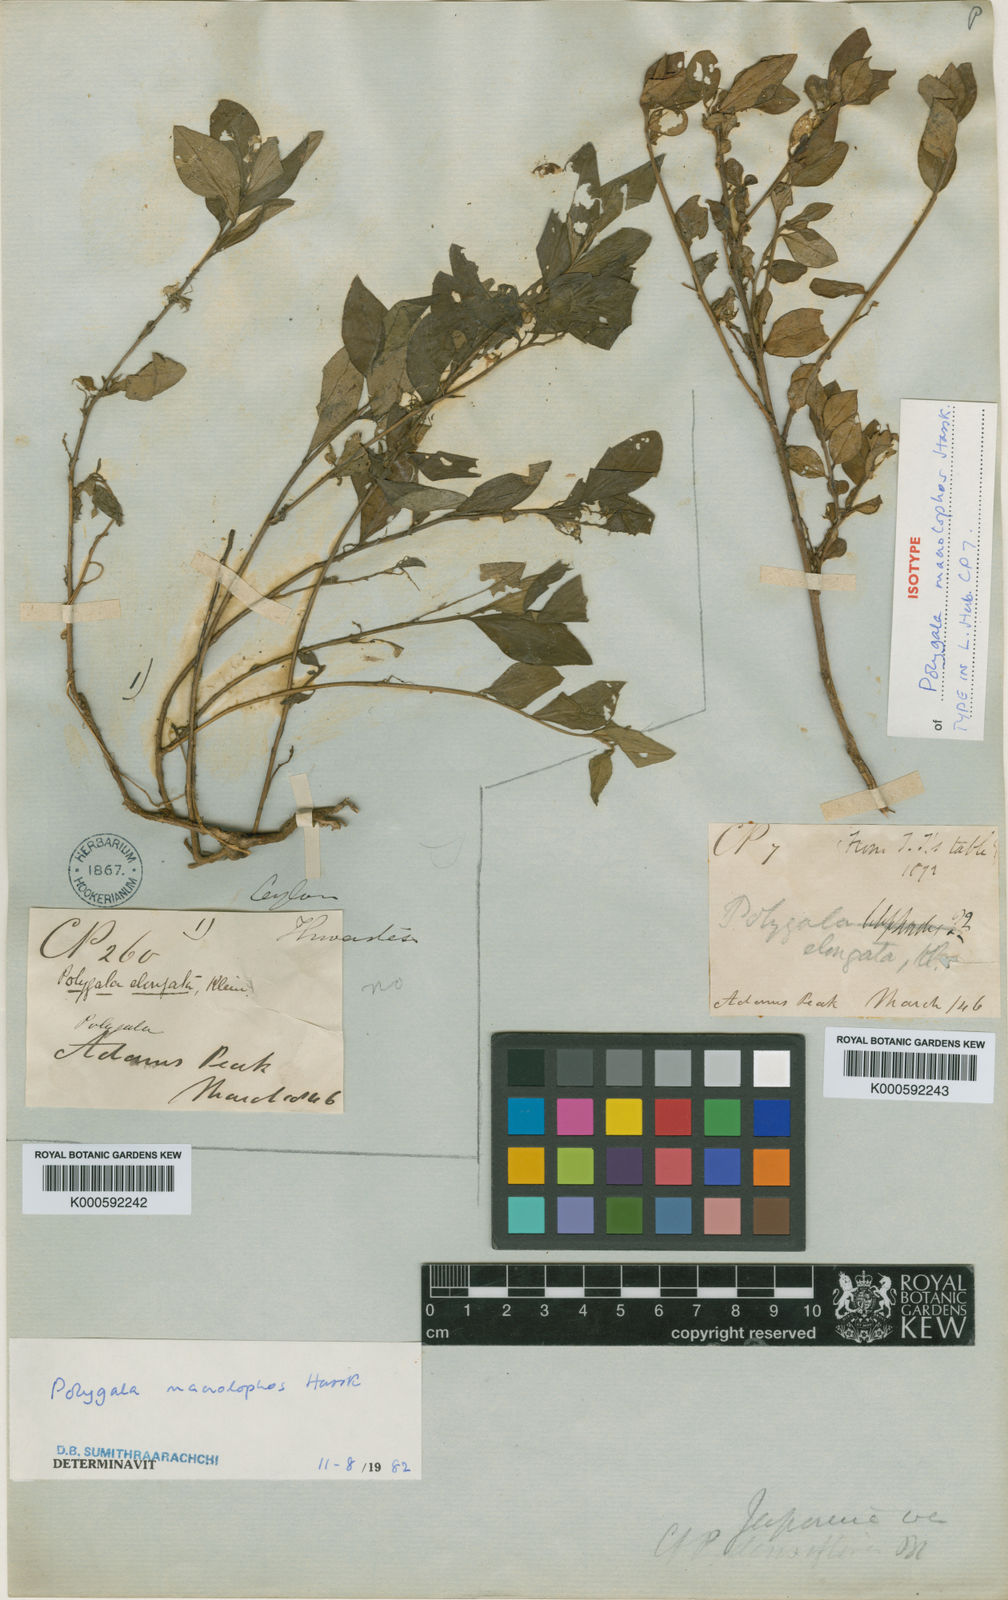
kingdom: Plantae
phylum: Tracheophyta
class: Magnoliopsida
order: Fabales
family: Polygalaceae
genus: Polygala
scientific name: Polygala macrolophos
